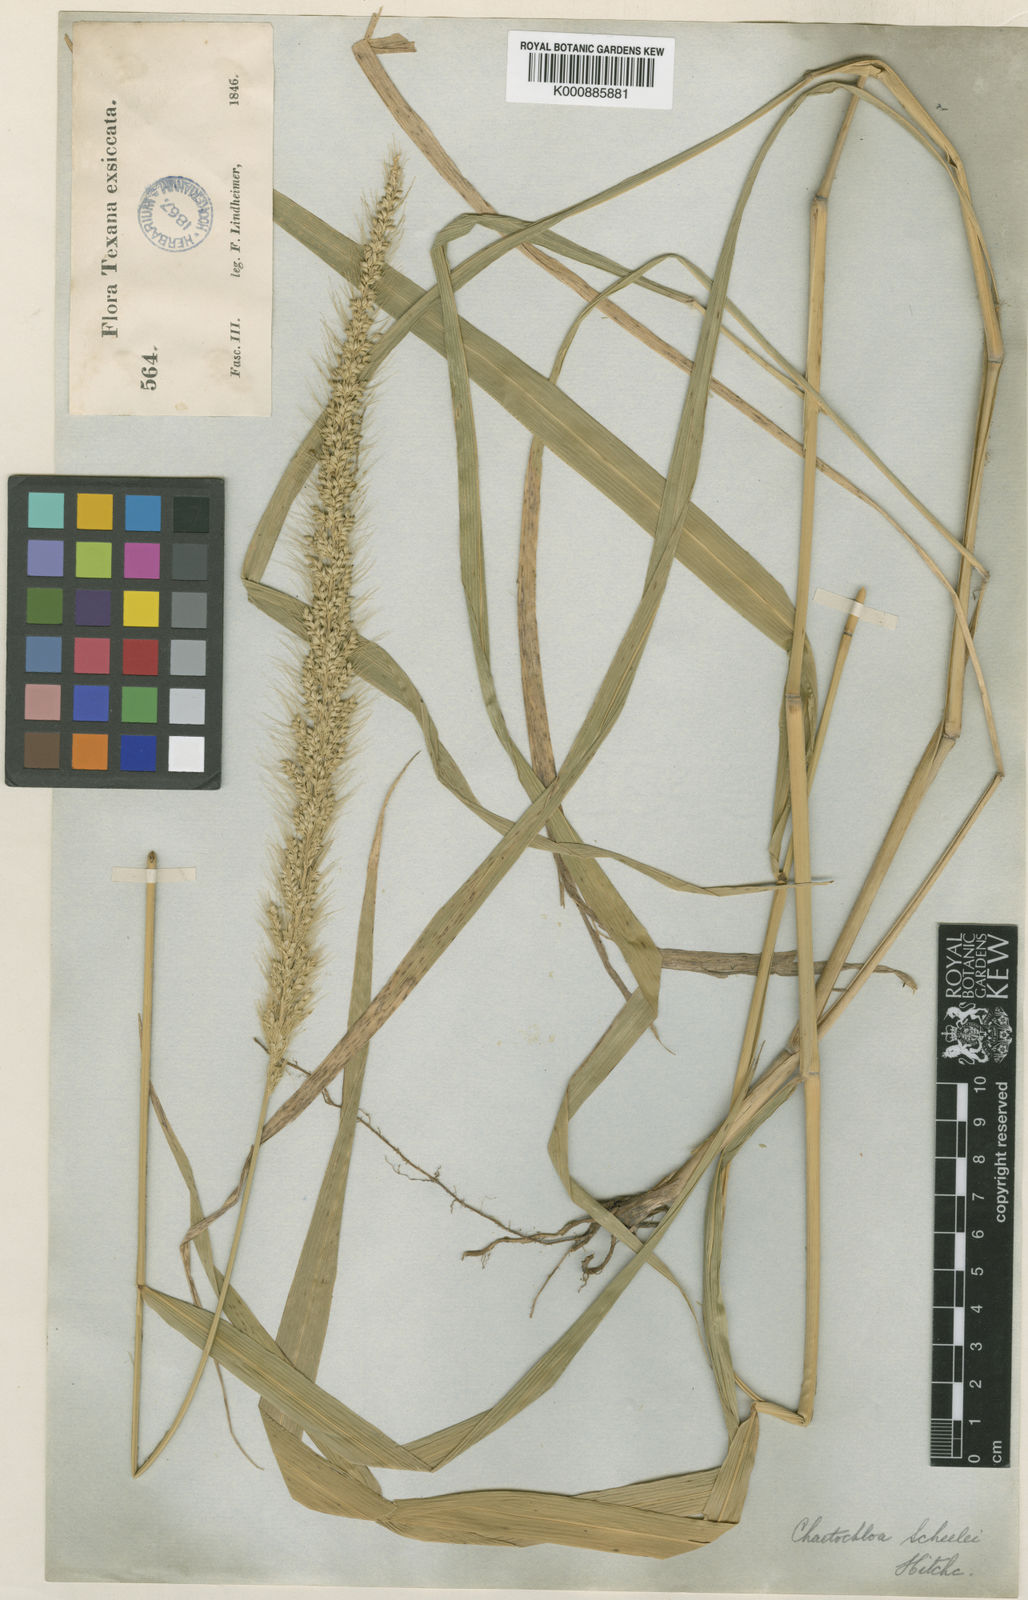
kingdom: Plantae
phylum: Tracheophyta
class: Liliopsida
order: Poales
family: Poaceae
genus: Setaria
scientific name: Setaria scheelei
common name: Southwestern bristle grass
